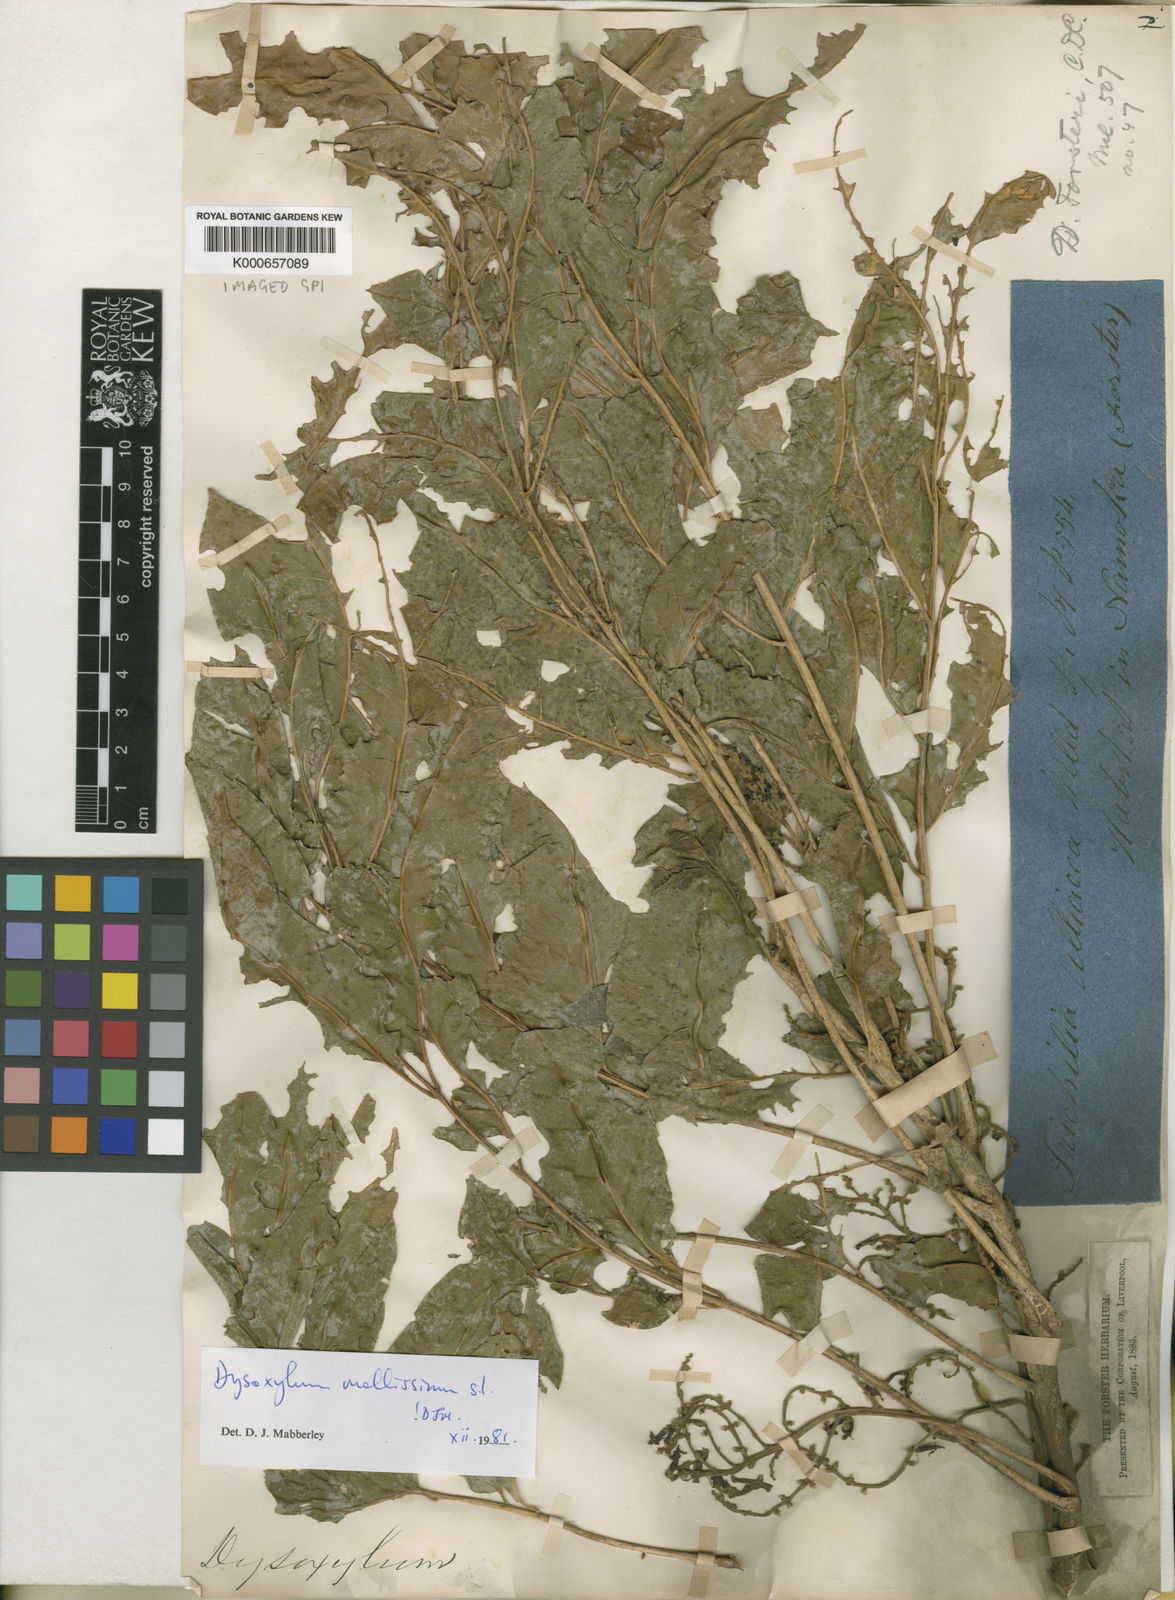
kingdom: Plantae
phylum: Tracheophyta
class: Magnoliopsida
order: Sapindales
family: Meliaceae
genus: Dysoxylum
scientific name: Dysoxylum mollissimum
